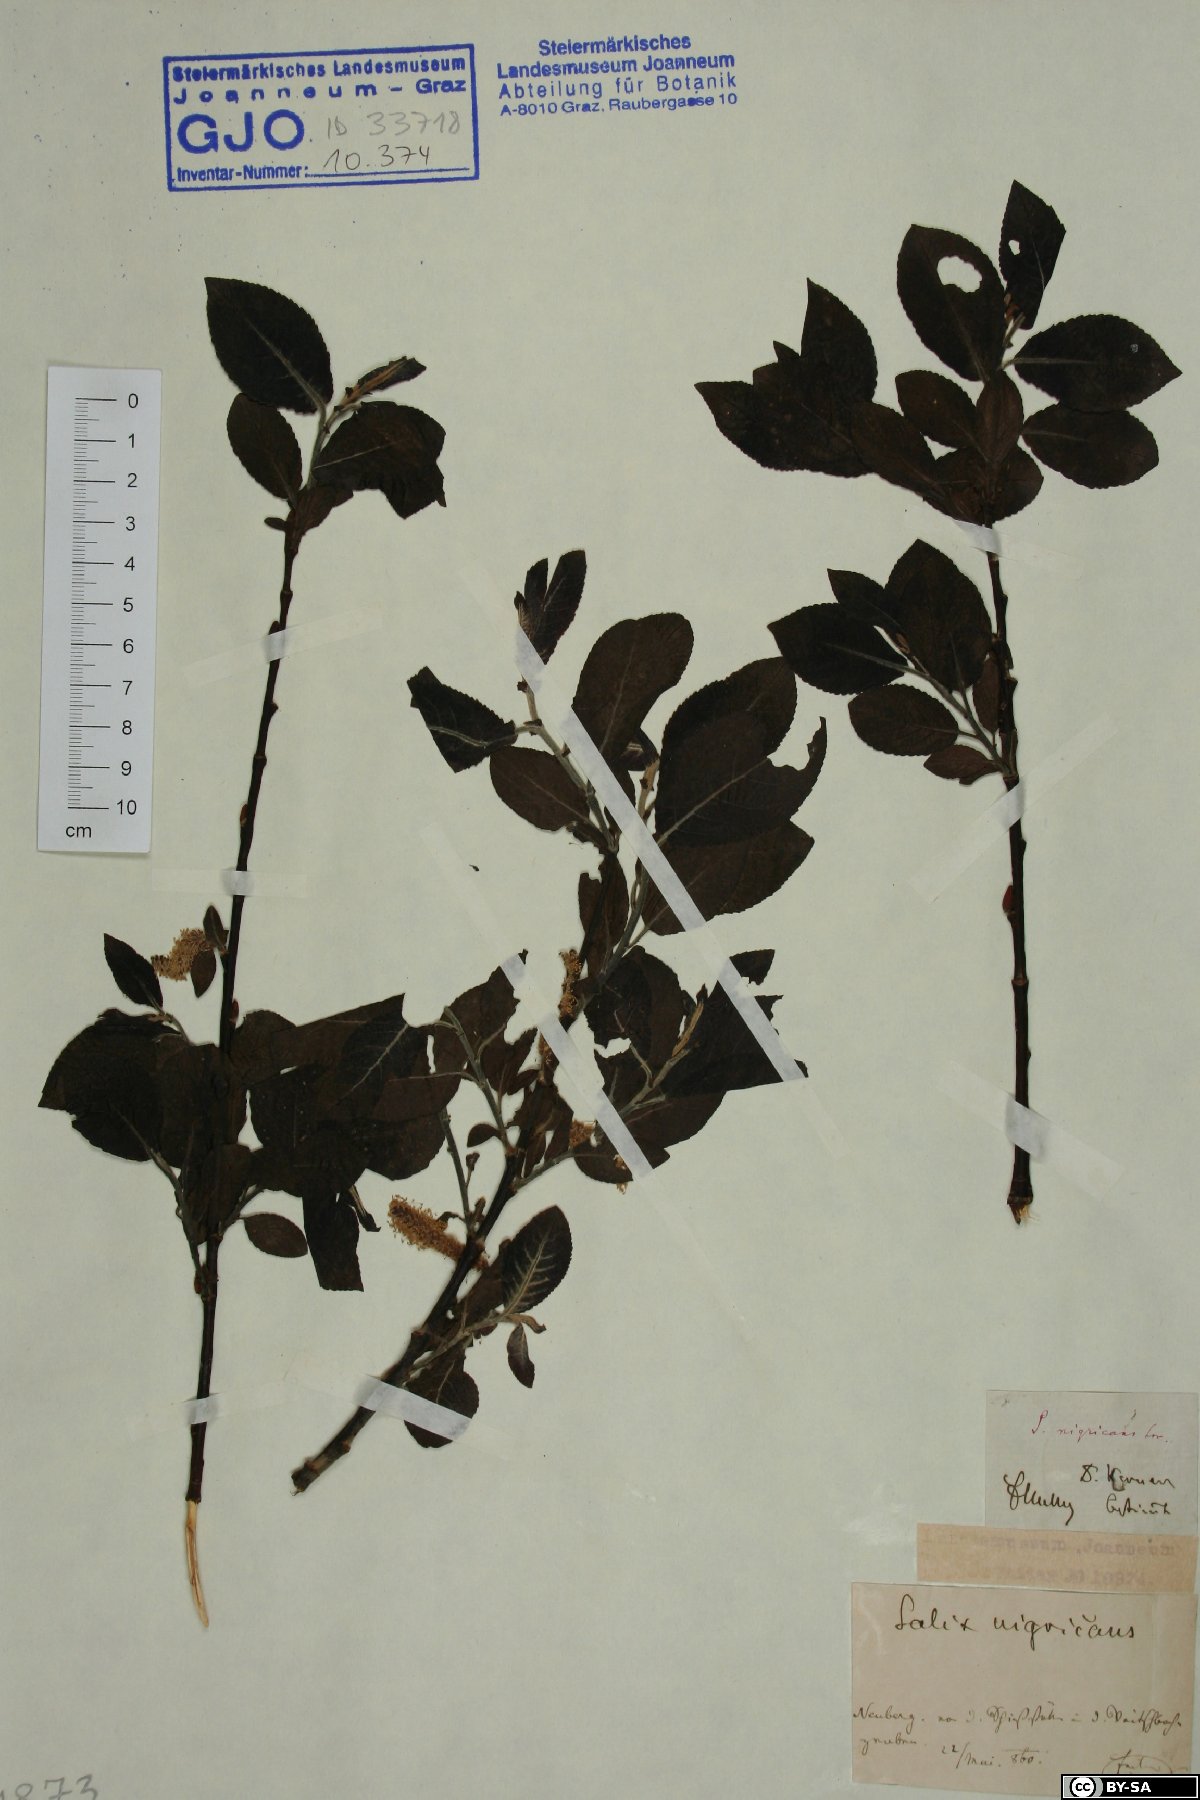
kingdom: Plantae
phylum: Tracheophyta
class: Magnoliopsida
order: Malpighiales
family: Salicaceae
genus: Salix
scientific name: Salix myrsinifolia
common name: Dark-leaved willow
